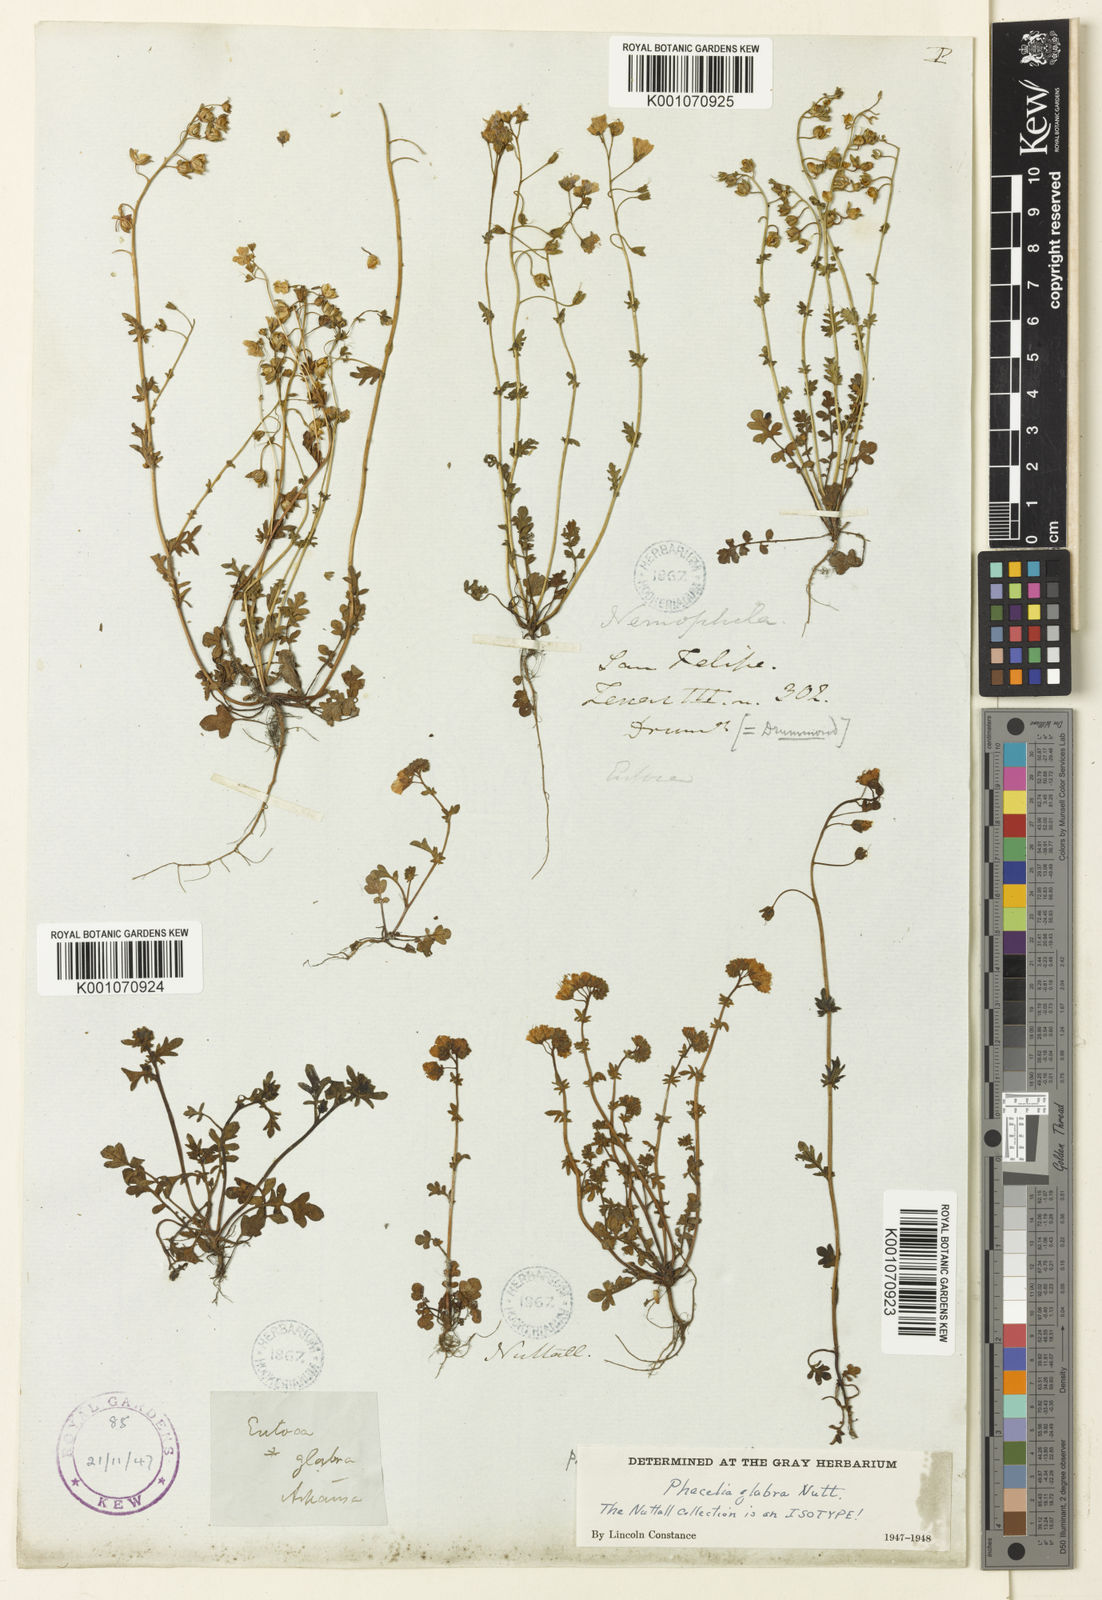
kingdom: Plantae
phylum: Tracheophyta
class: Magnoliopsida
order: Boraginales
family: Hydrophyllaceae
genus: Phacelia
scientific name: Phacelia glabra
